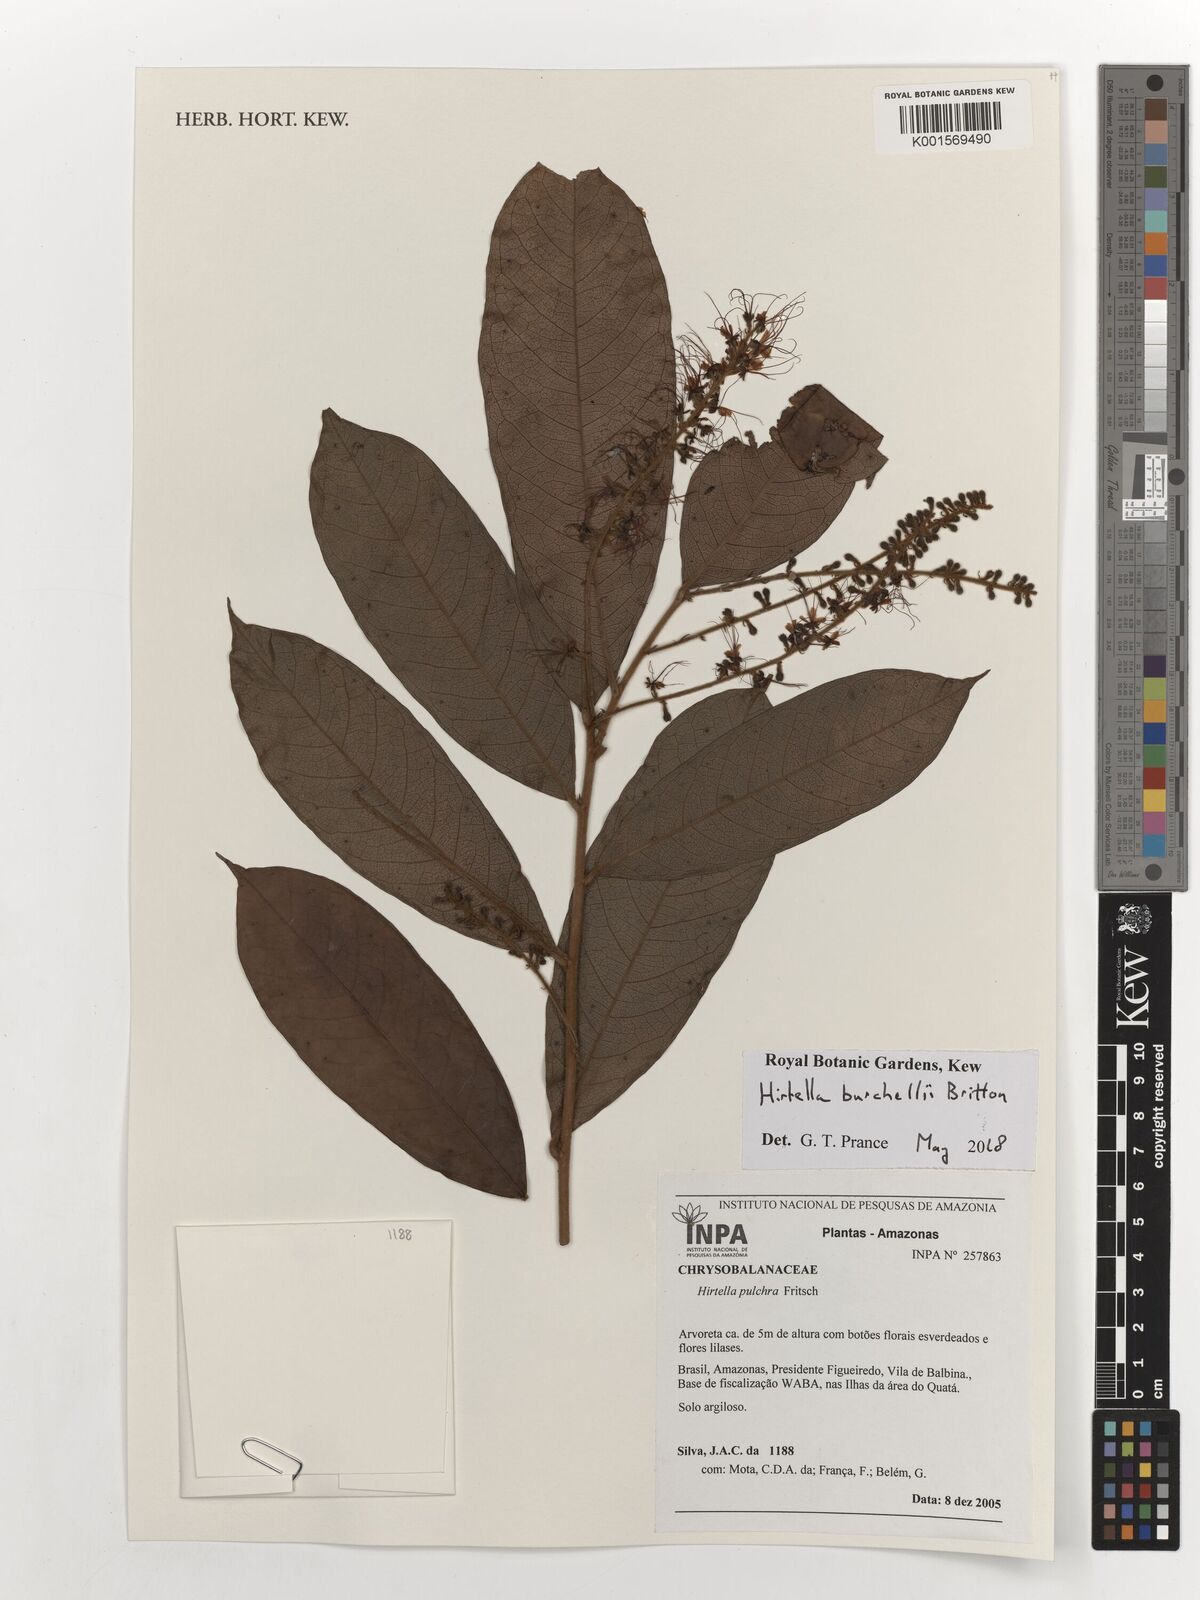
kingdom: Plantae
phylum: Tracheophyta
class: Magnoliopsida
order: Malpighiales
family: Chrysobalanaceae
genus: Hirtella
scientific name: Hirtella burchellii
